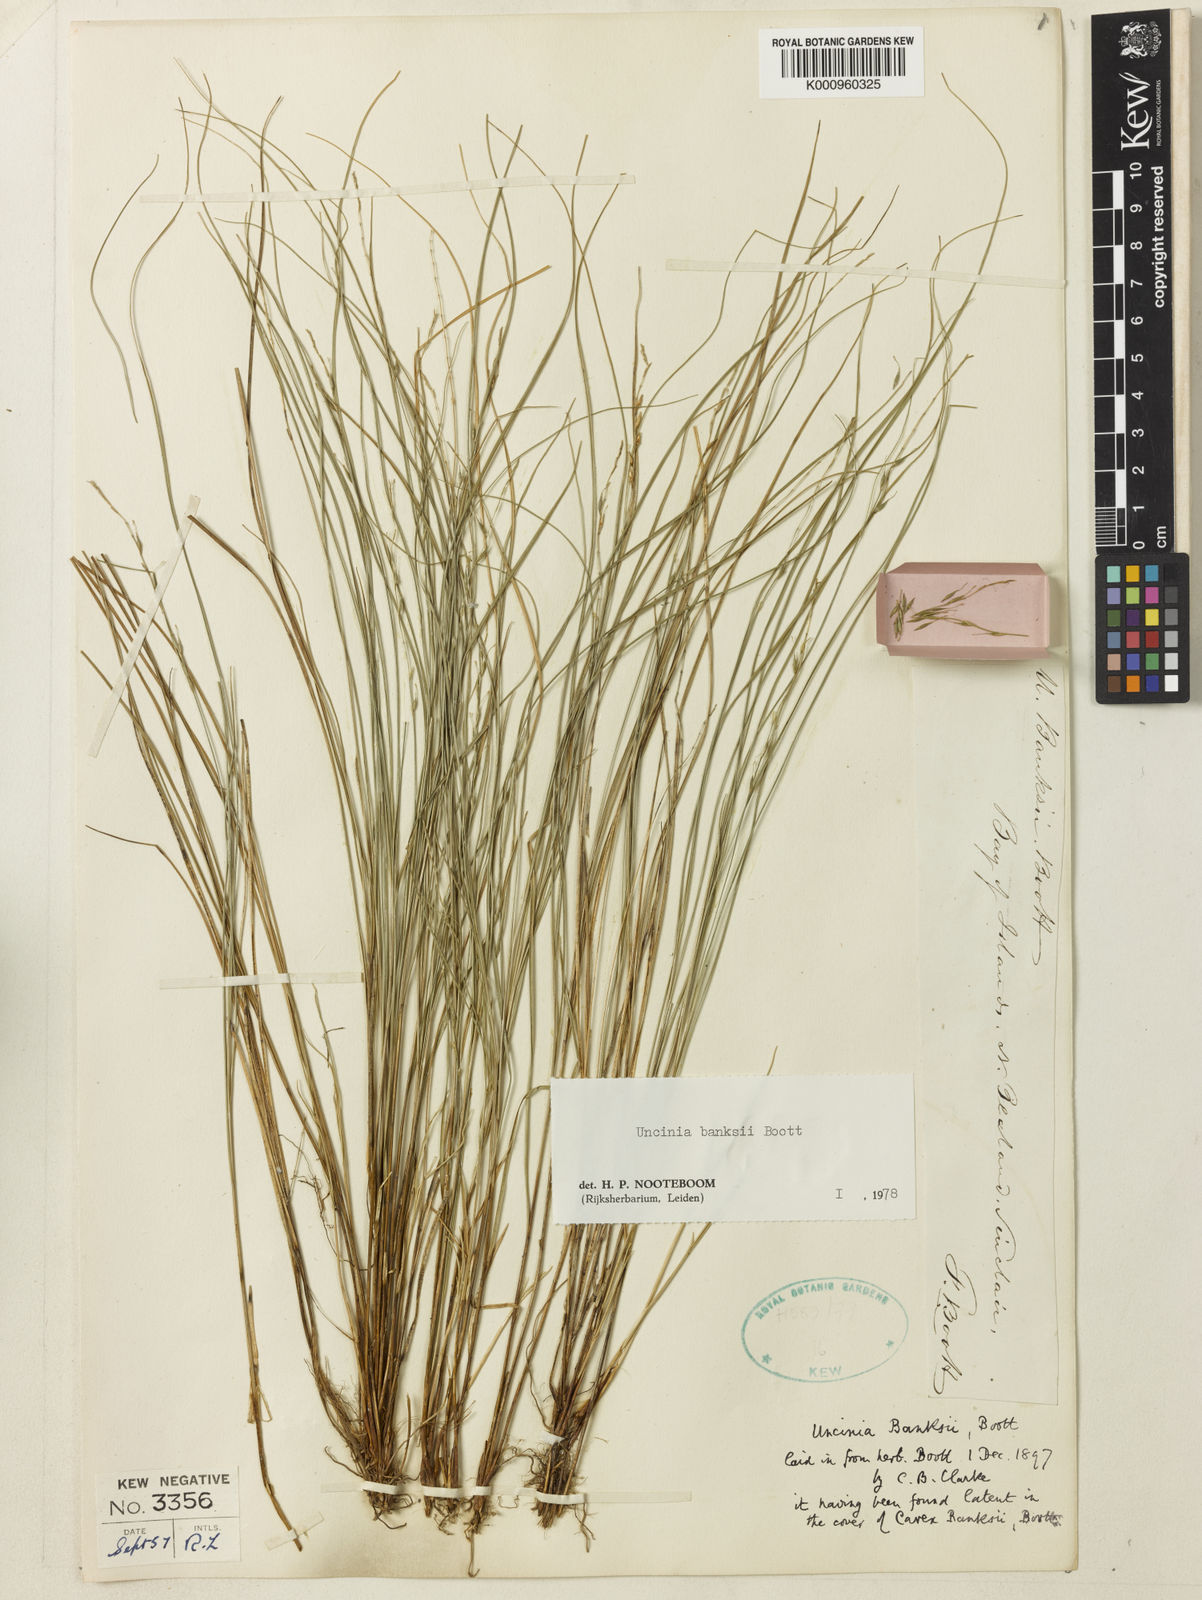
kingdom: Plantae
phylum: Tracheophyta
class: Liliopsida
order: Poales
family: Cyperaceae
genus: Carex
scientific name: Carex umbricola
